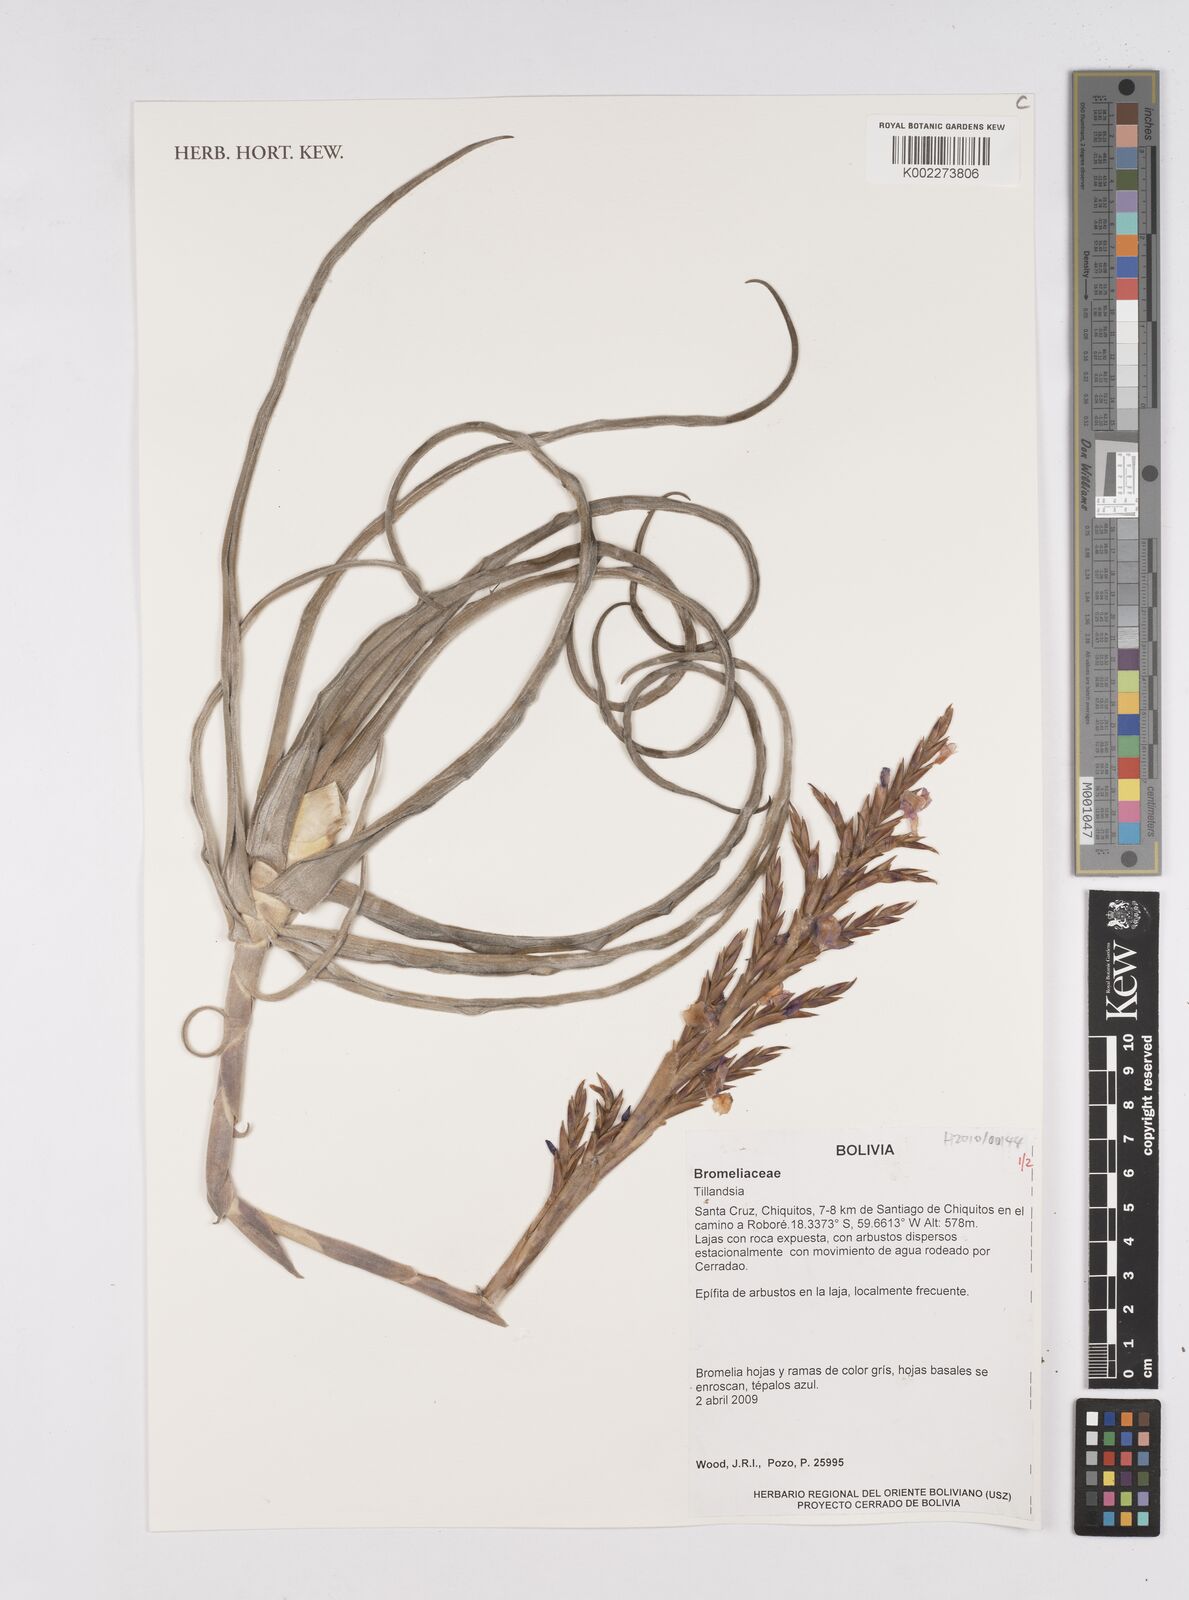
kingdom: Plantae
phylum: Tracheophyta
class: Liliopsida
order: Poales
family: Bromeliaceae
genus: Tillandsia
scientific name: Tillandsia
